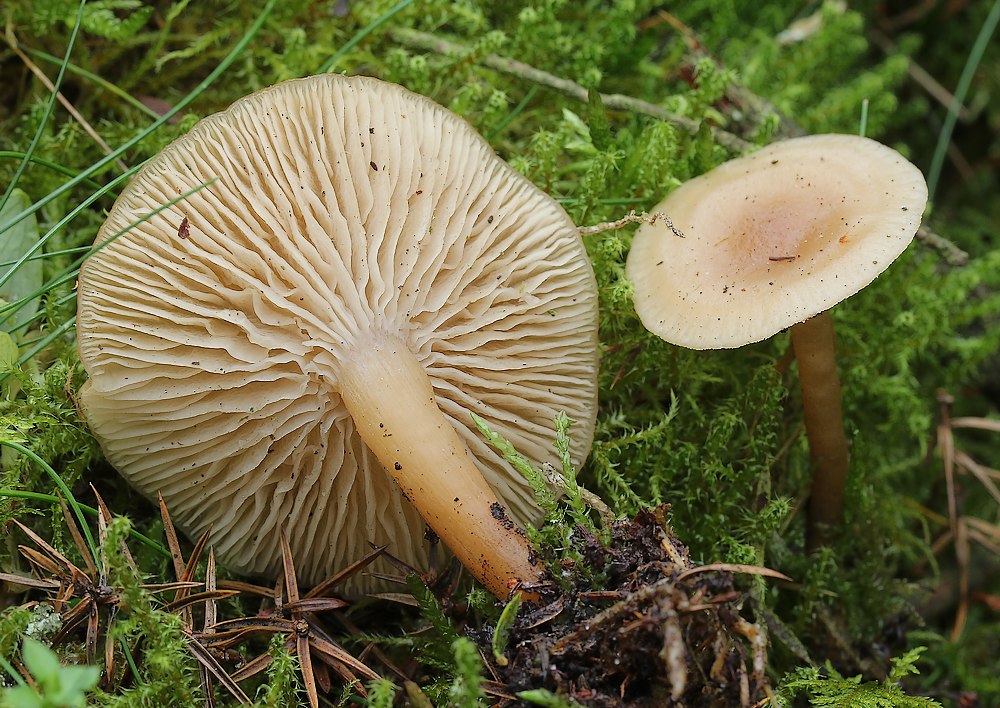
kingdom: Fungi
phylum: Basidiomycota
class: Agaricomycetes
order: Agaricales
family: Tricholomataceae
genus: Clitocybe
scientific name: Clitocybe fragrans
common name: vellugtende tragthat
